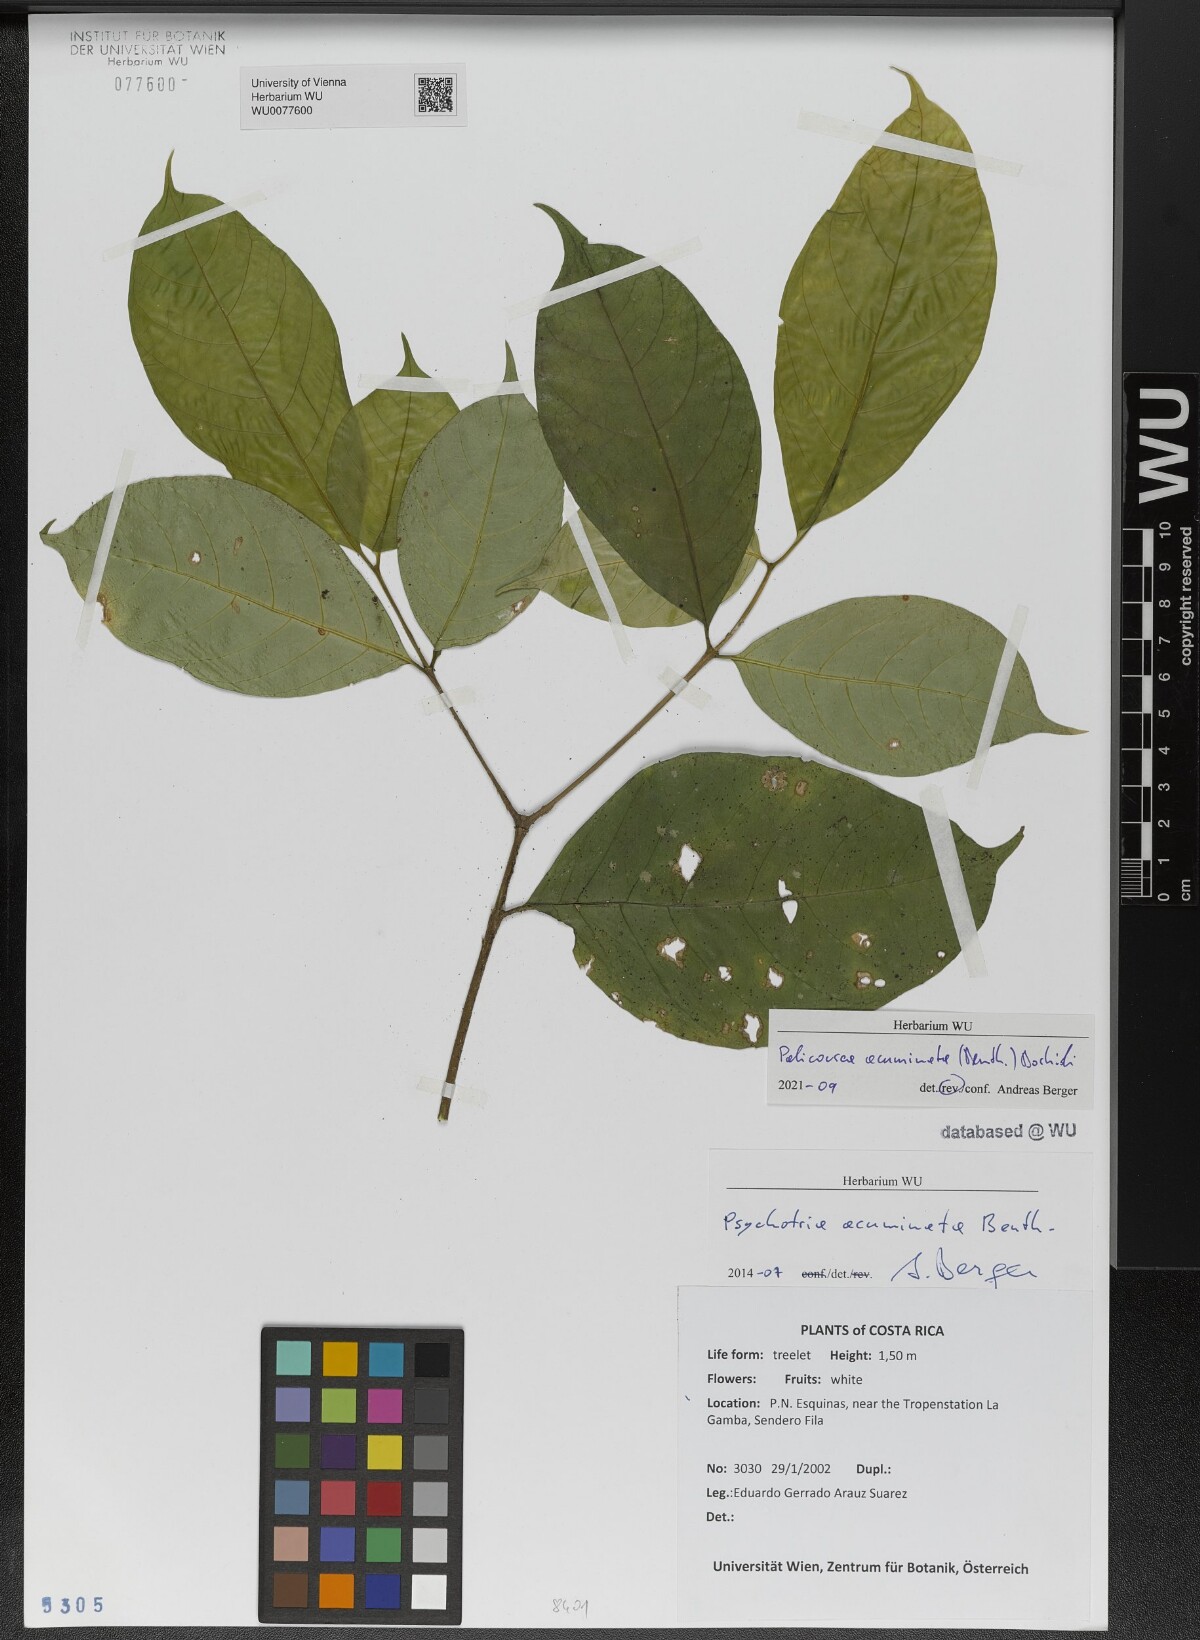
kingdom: Plantae
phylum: Tracheophyta
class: Magnoliopsida
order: Gentianales
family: Rubiaceae
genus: Palicourea
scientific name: Palicourea acuminata
